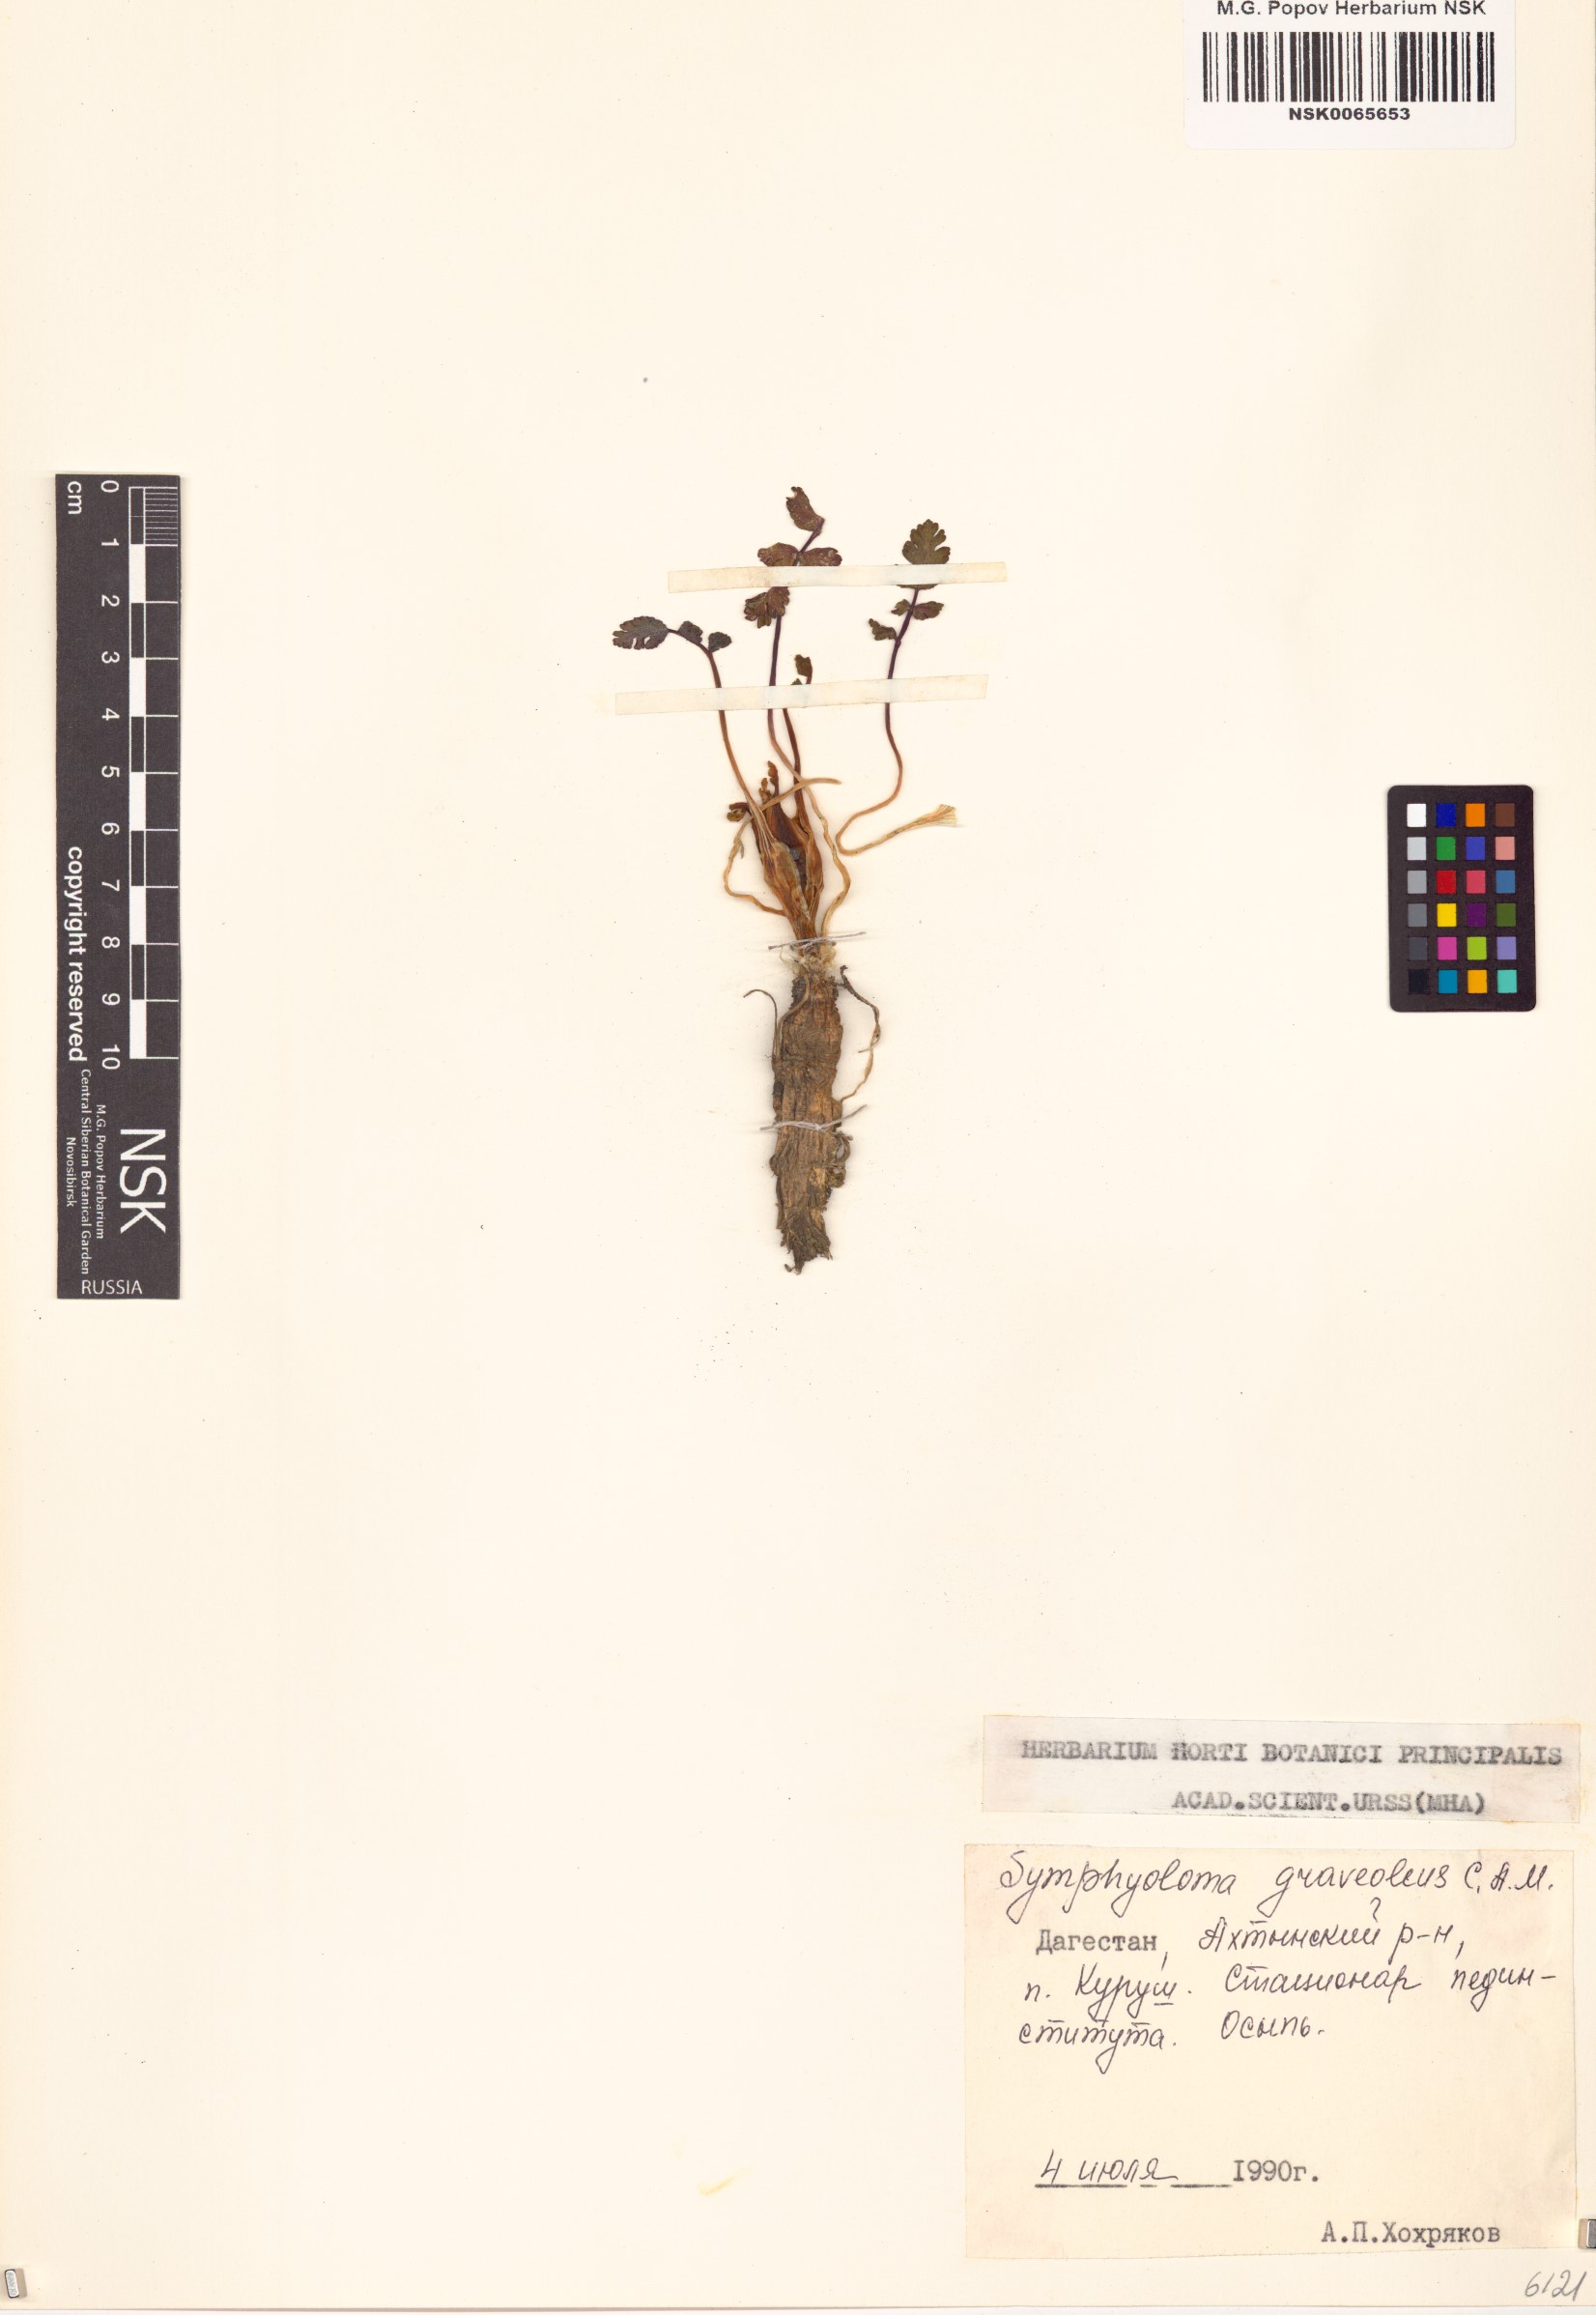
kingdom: Plantae
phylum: Tracheophyta
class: Magnoliopsida
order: Apiales
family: Apiaceae
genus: Heracleum
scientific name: Heracleum graveolens
